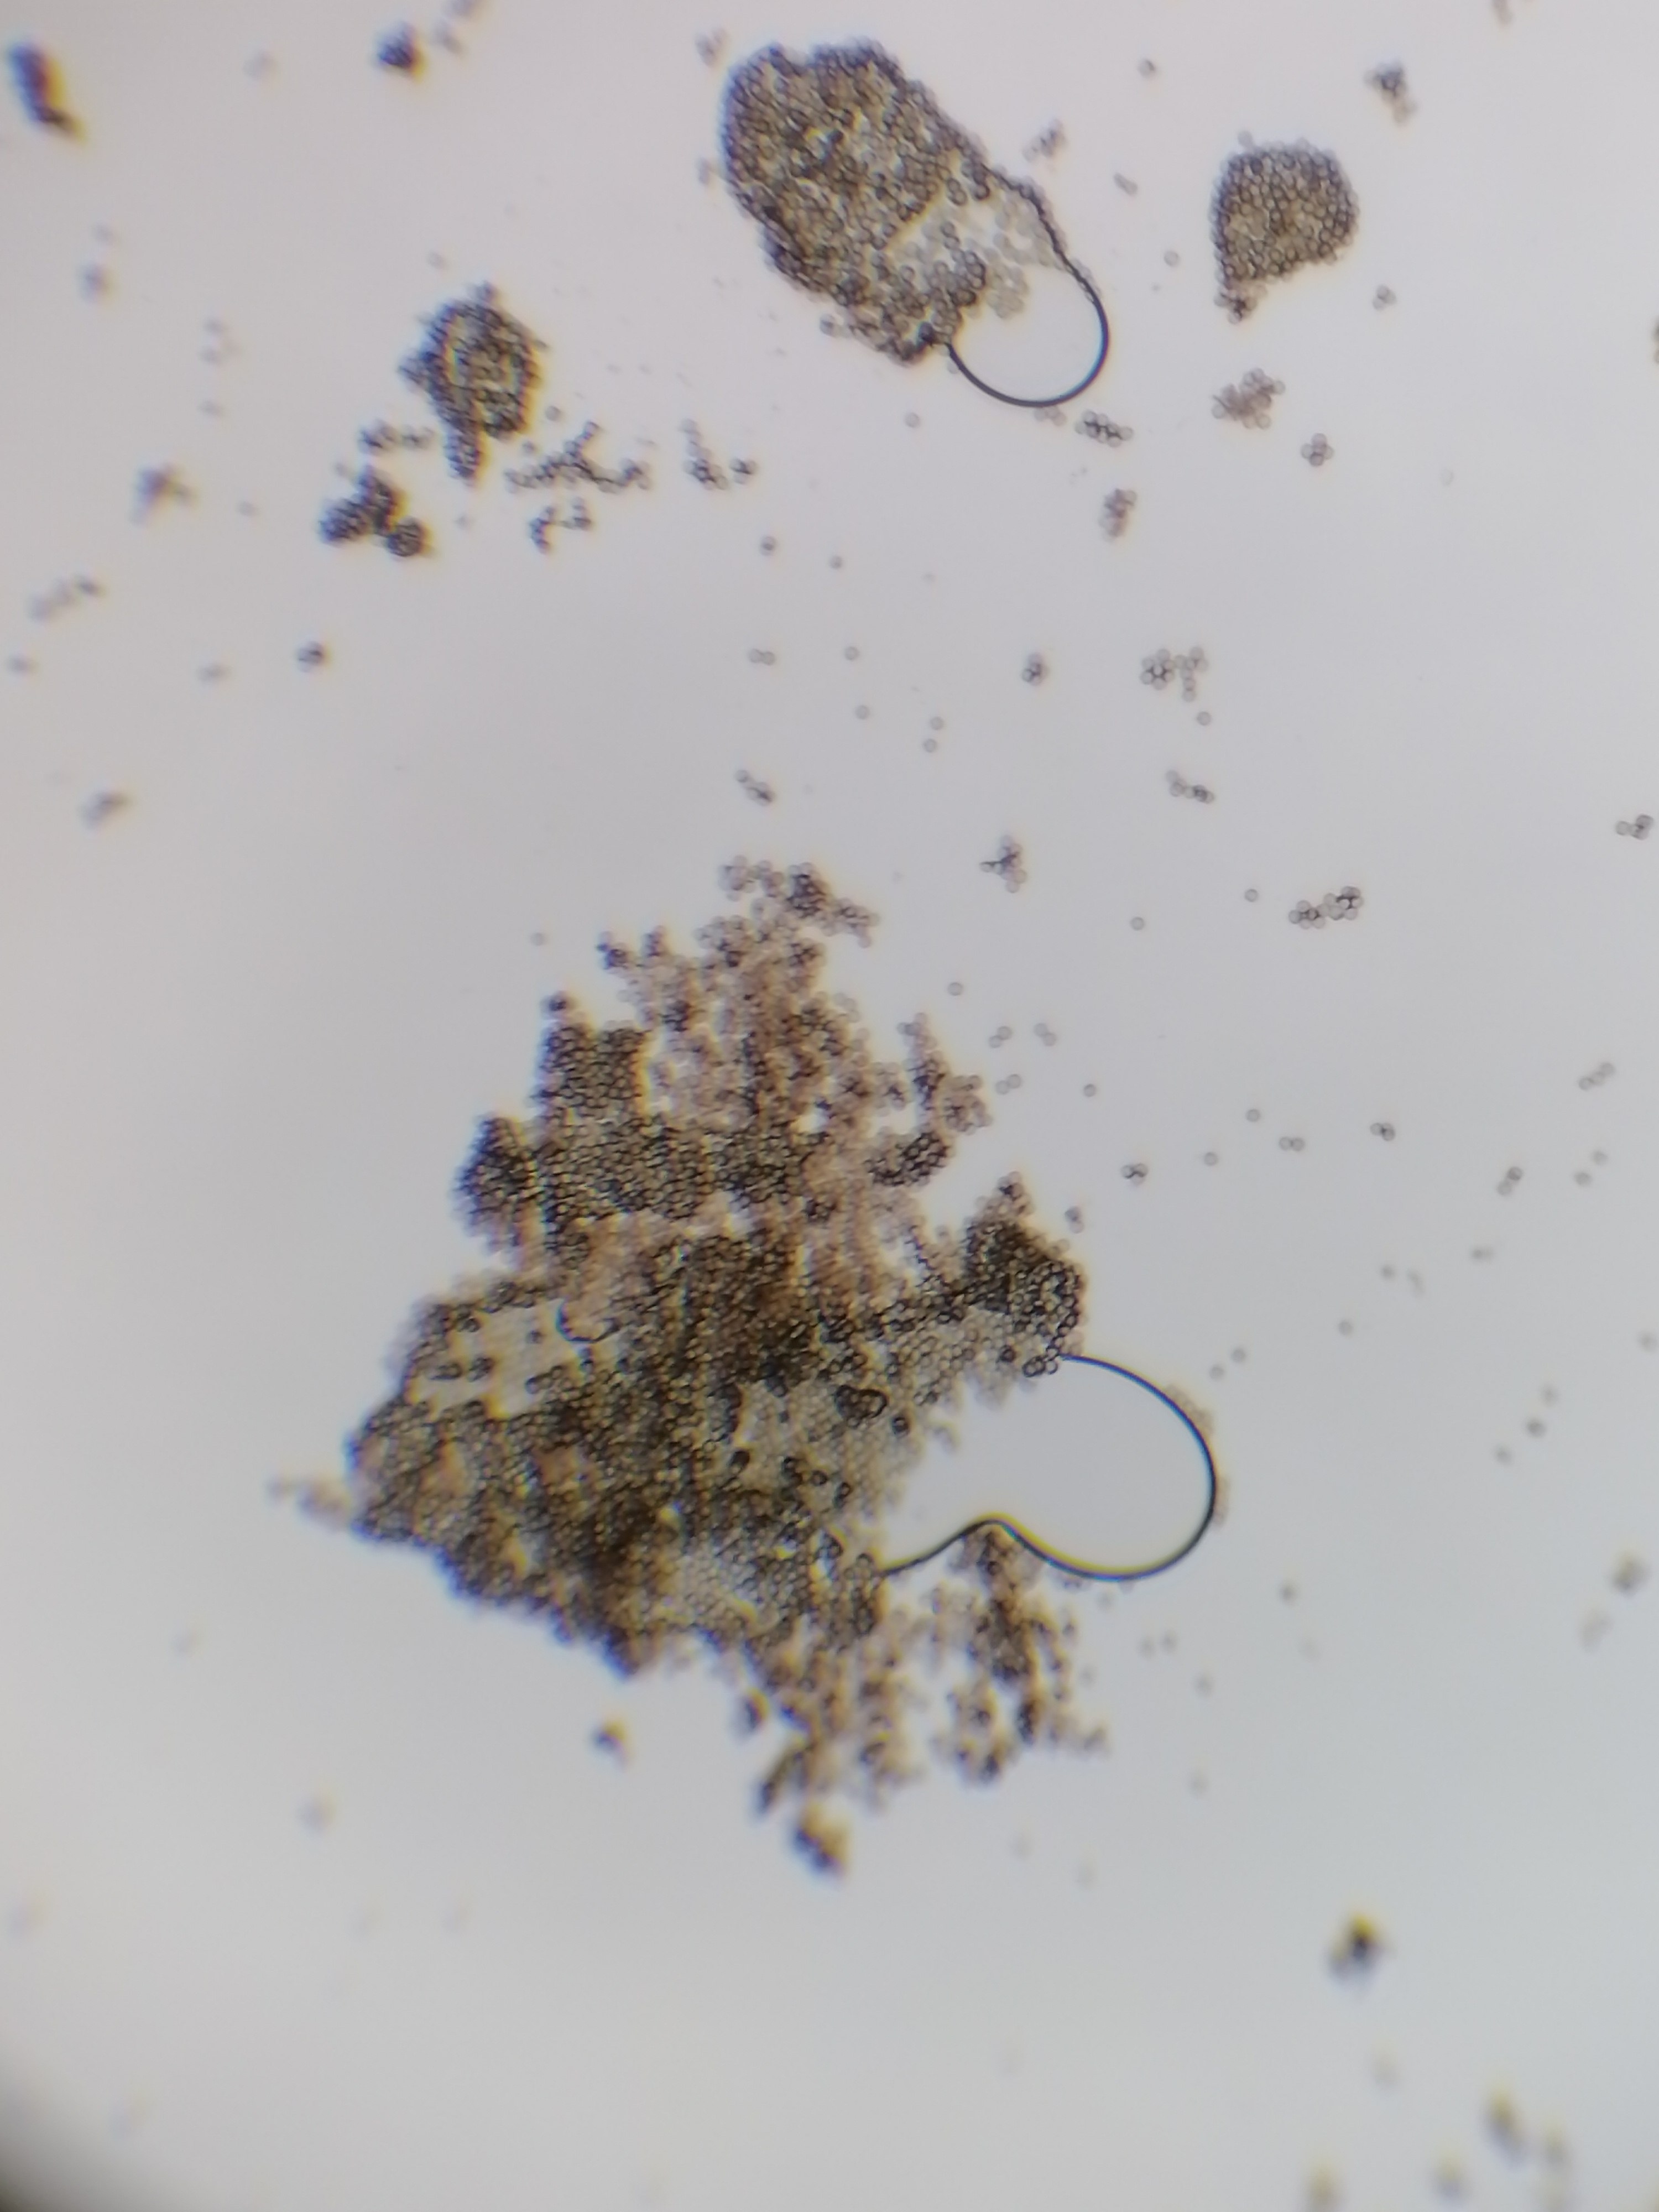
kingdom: Protozoa
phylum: Mycetozoa
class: Myxomycetes
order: Stemonitidales
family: Stemonitidaceae
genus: Stemonitopsis
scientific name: Stemonitopsis typhina
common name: skinnende støvkølle
